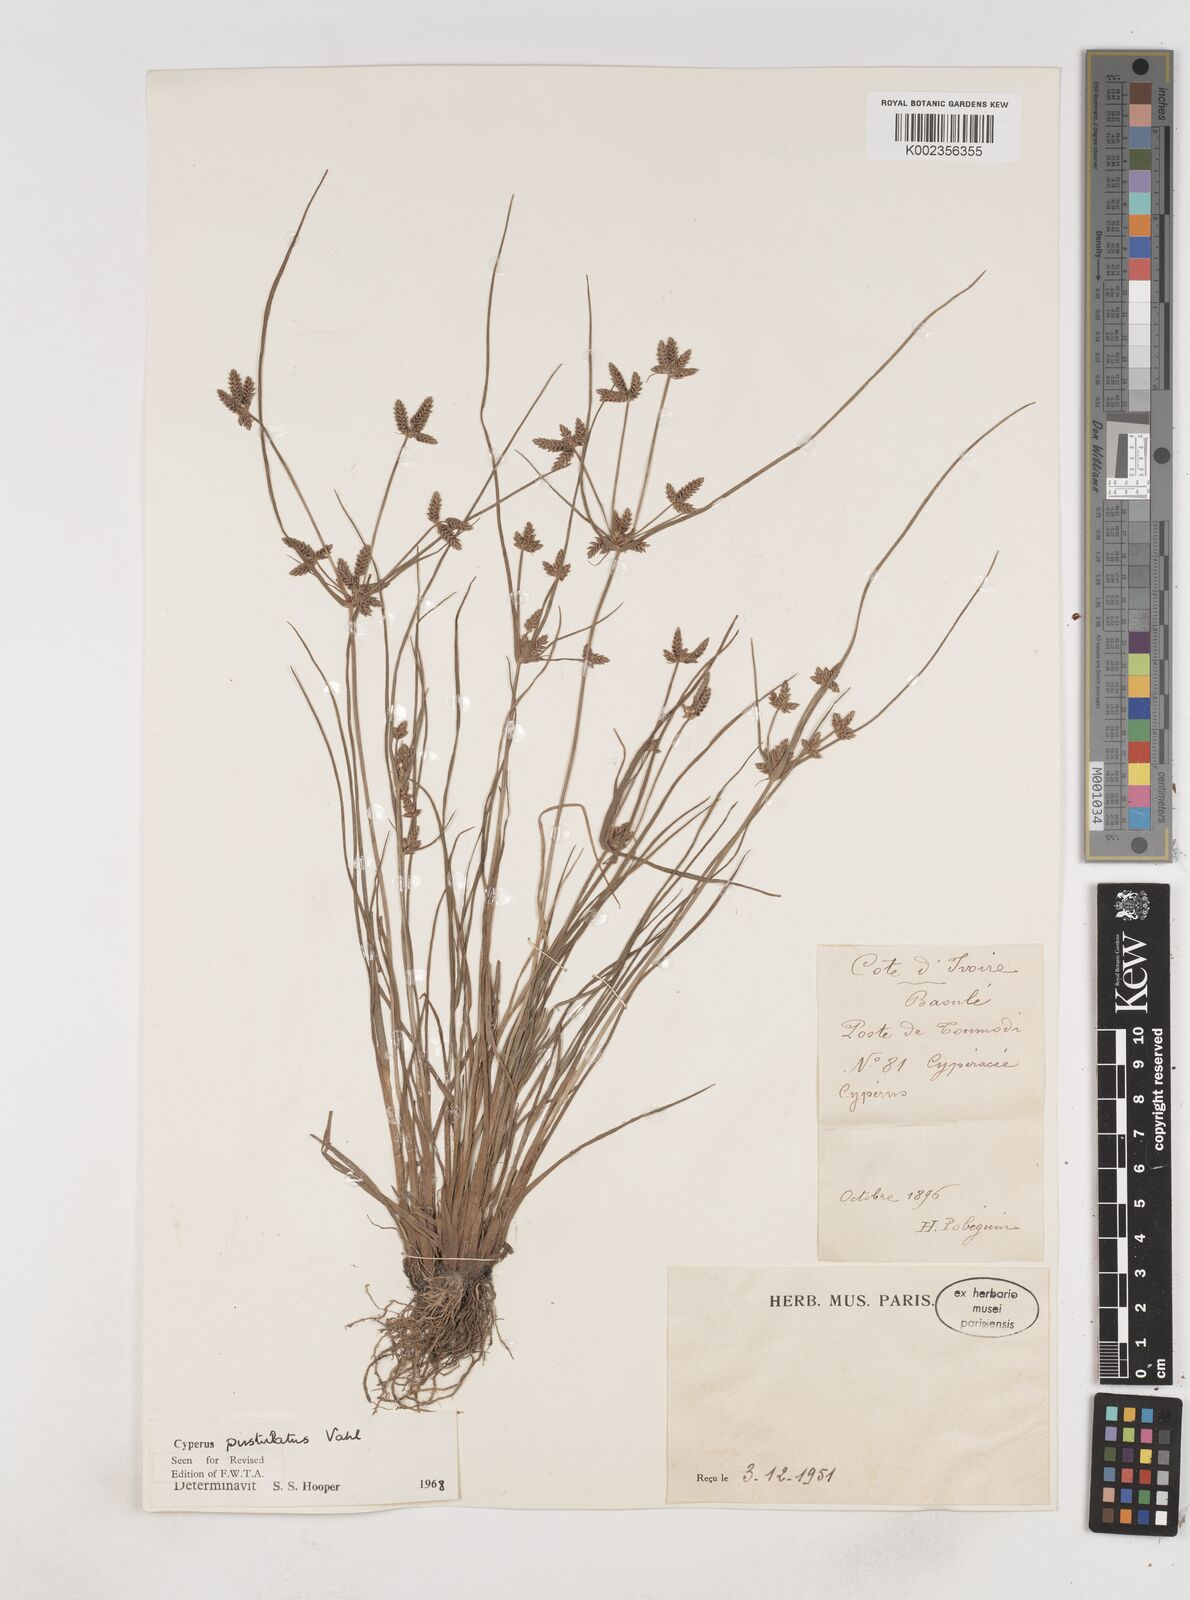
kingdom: Plantae
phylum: Tracheophyta
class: Liliopsida
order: Poales
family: Cyperaceae
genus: Cyperus
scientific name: Cyperus pustulatus
